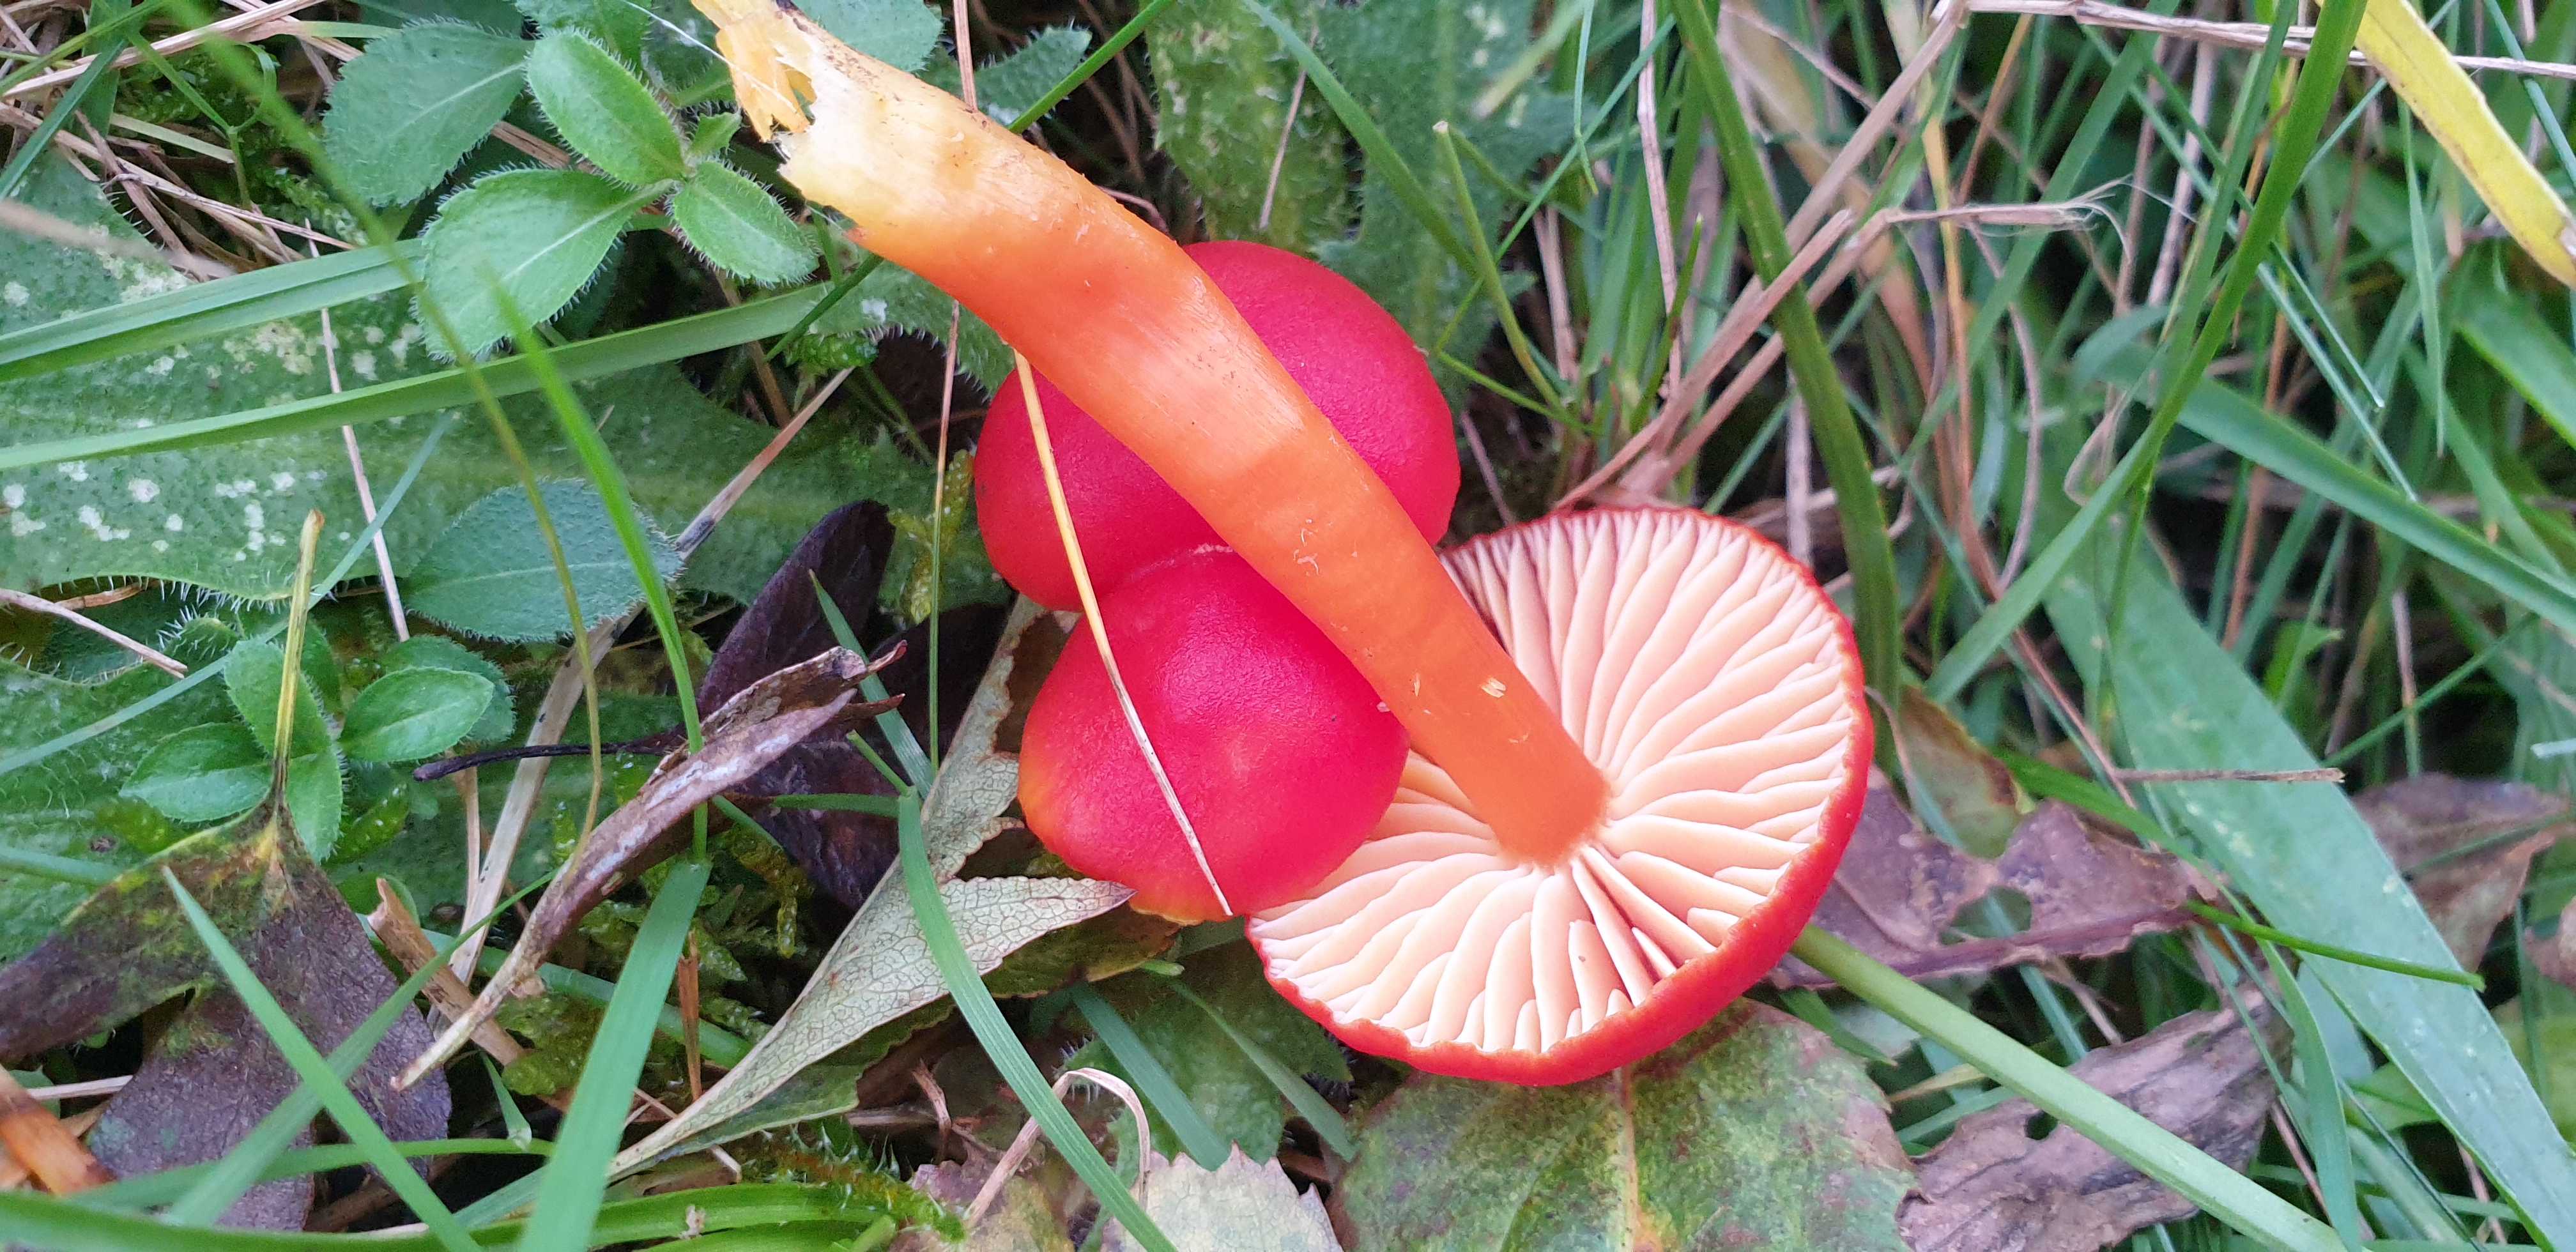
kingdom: Fungi
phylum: Basidiomycota
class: Agaricomycetes
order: Agaricales
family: Hygrophoraceae
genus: Hygrocybe
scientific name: Hygrocybe coccinea
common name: cinnober-vokshat
